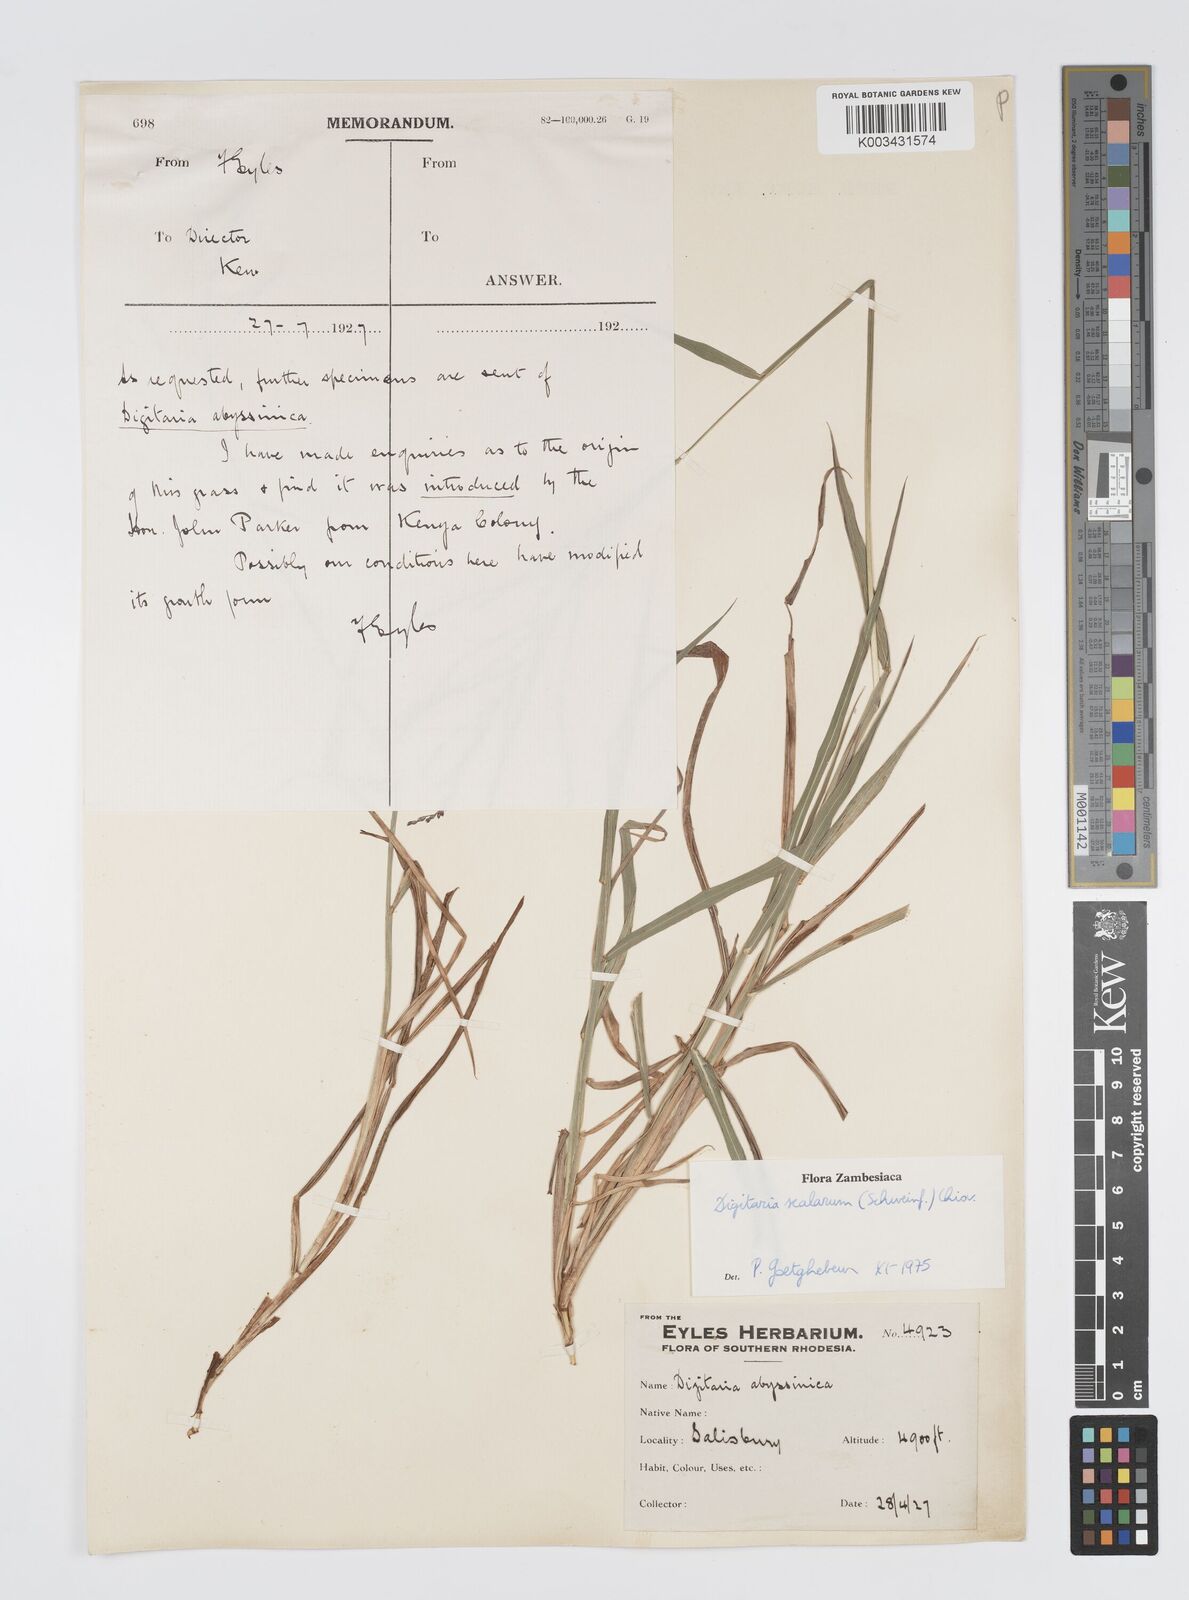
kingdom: Plantae
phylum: Tracheophyta
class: Liliopsida
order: Poales
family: Poaceae
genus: Digitaria
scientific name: Digitaria abyssinica
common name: African couchgrass
